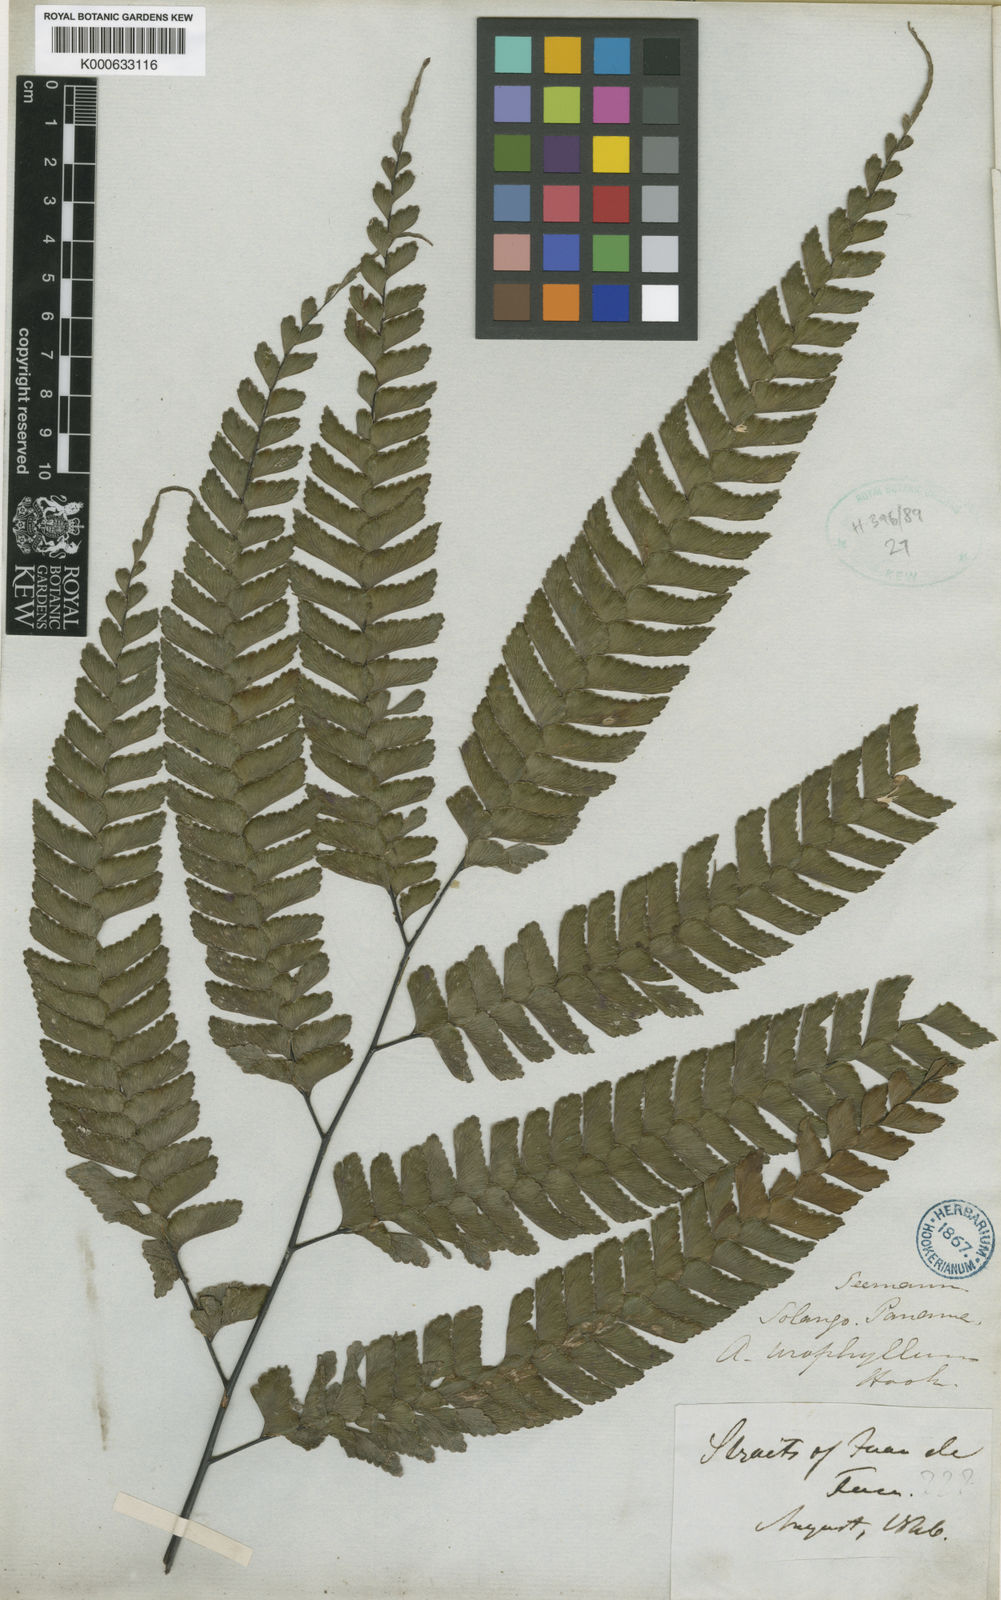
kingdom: Plantae
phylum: Tracheophyta
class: Polypodiopsida
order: Polypodiales
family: Pteridaceae
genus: Adiantum
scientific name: Adiantum urophyllum
